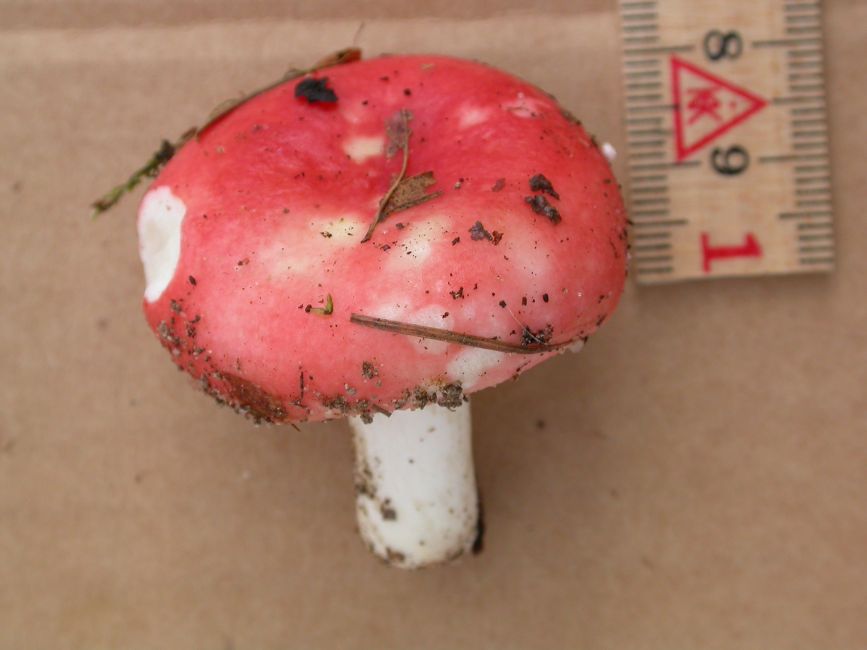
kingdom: Fungi
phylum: Basidiomycota
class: Agaricomycetes
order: Russulales
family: Russulaceae
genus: Russula
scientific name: Russula nobilis
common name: lille gift-skørhat
